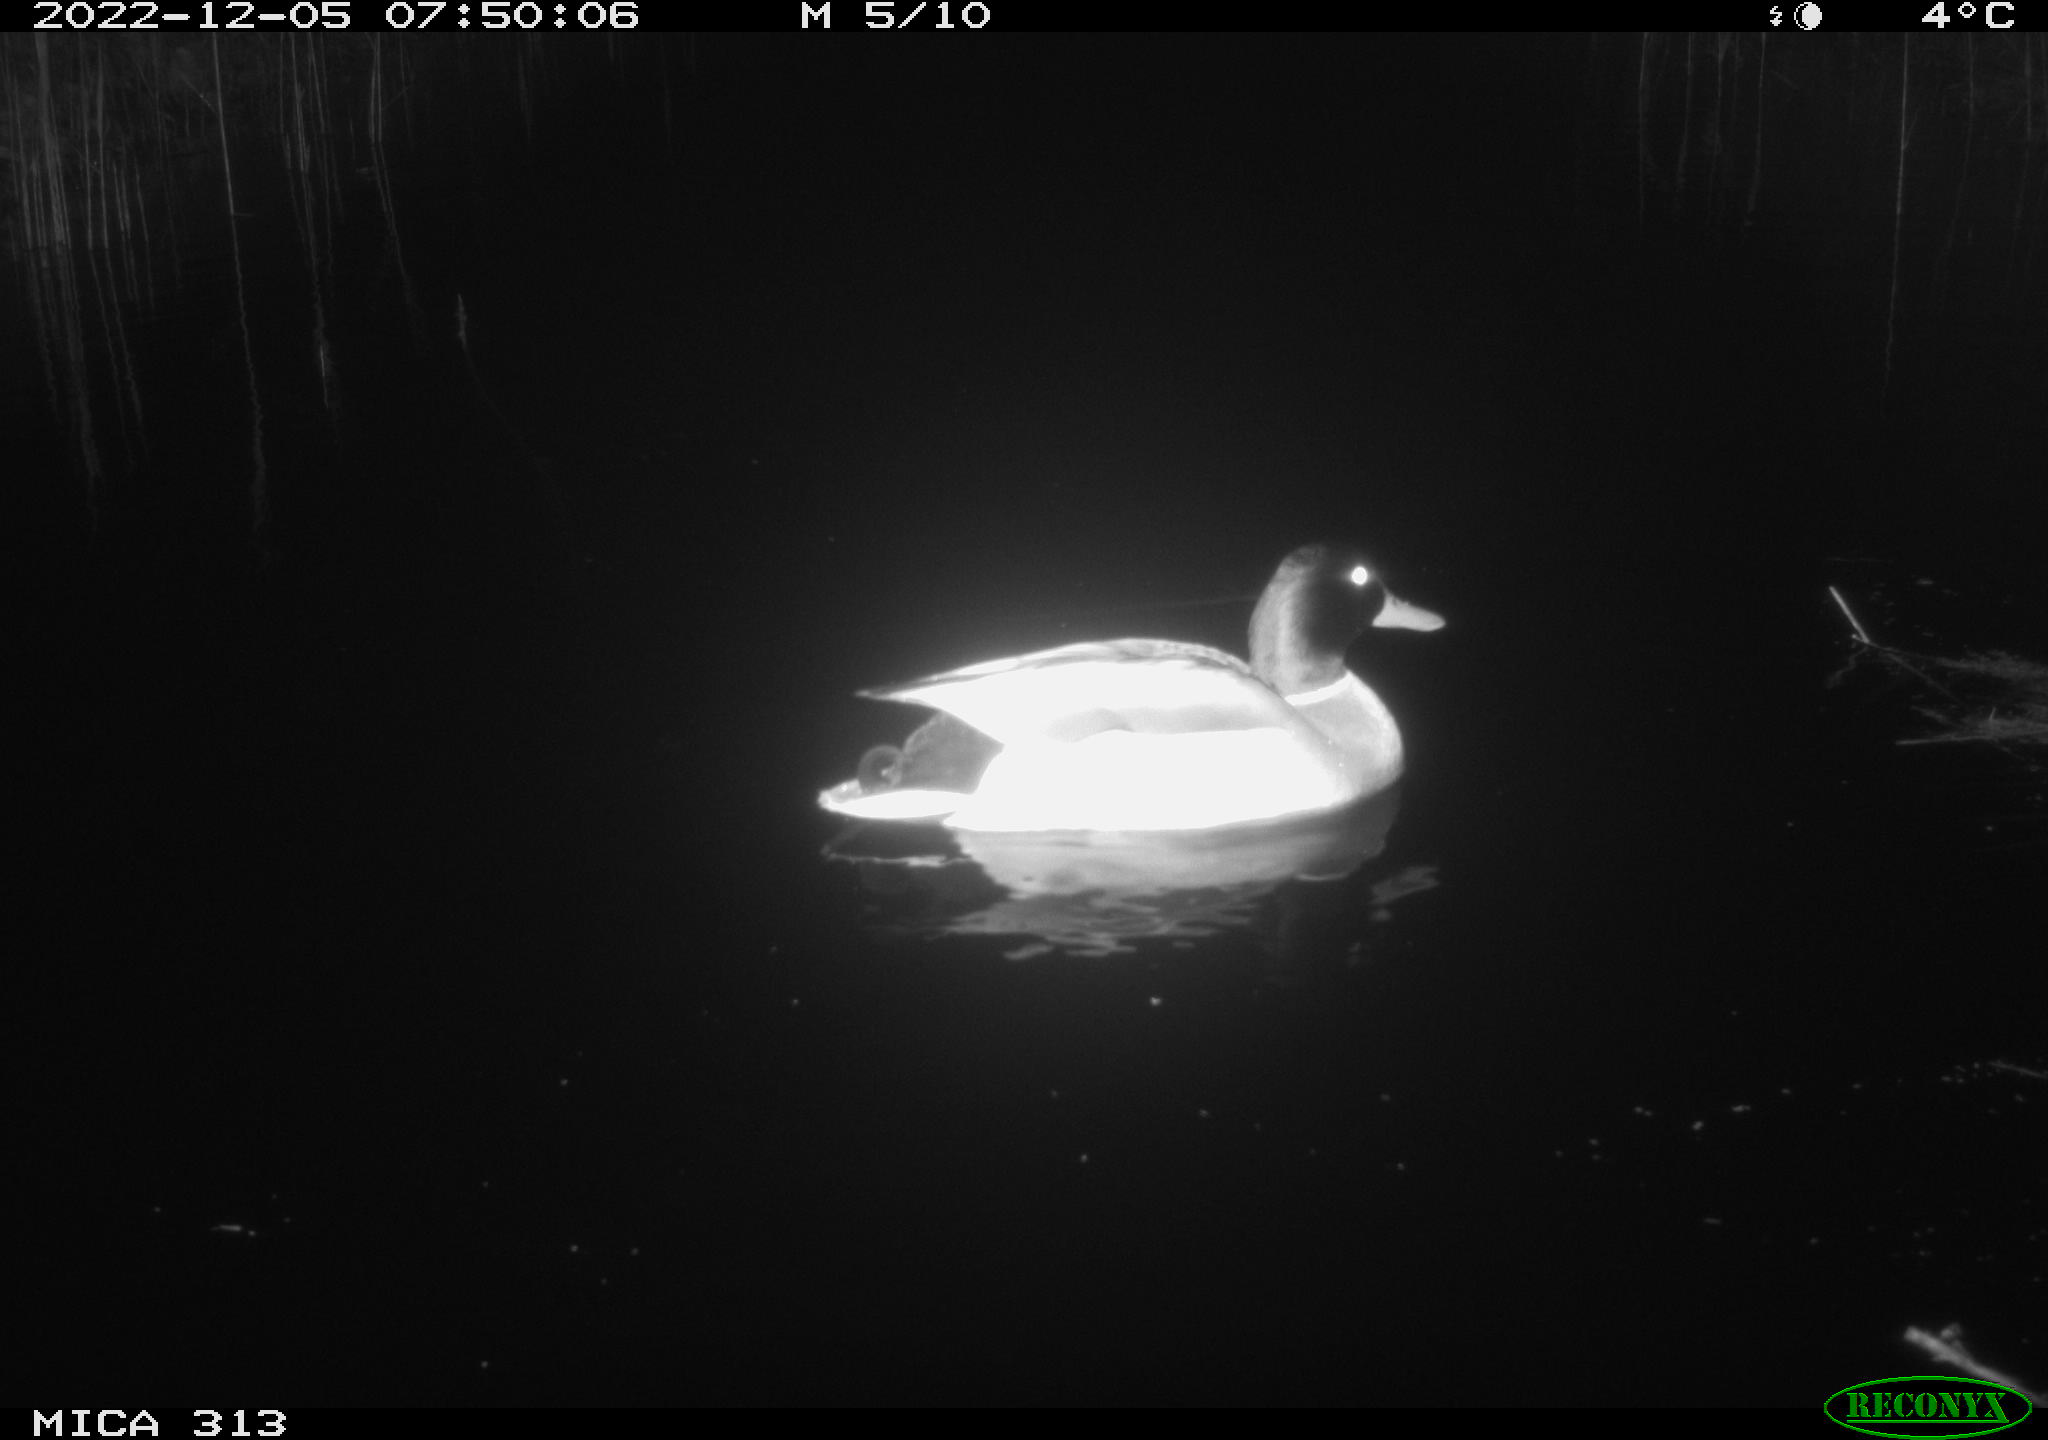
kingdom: Animalia
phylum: Chordata
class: Aves
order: Anseriformes
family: Anatidae
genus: Anas
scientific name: Anas
